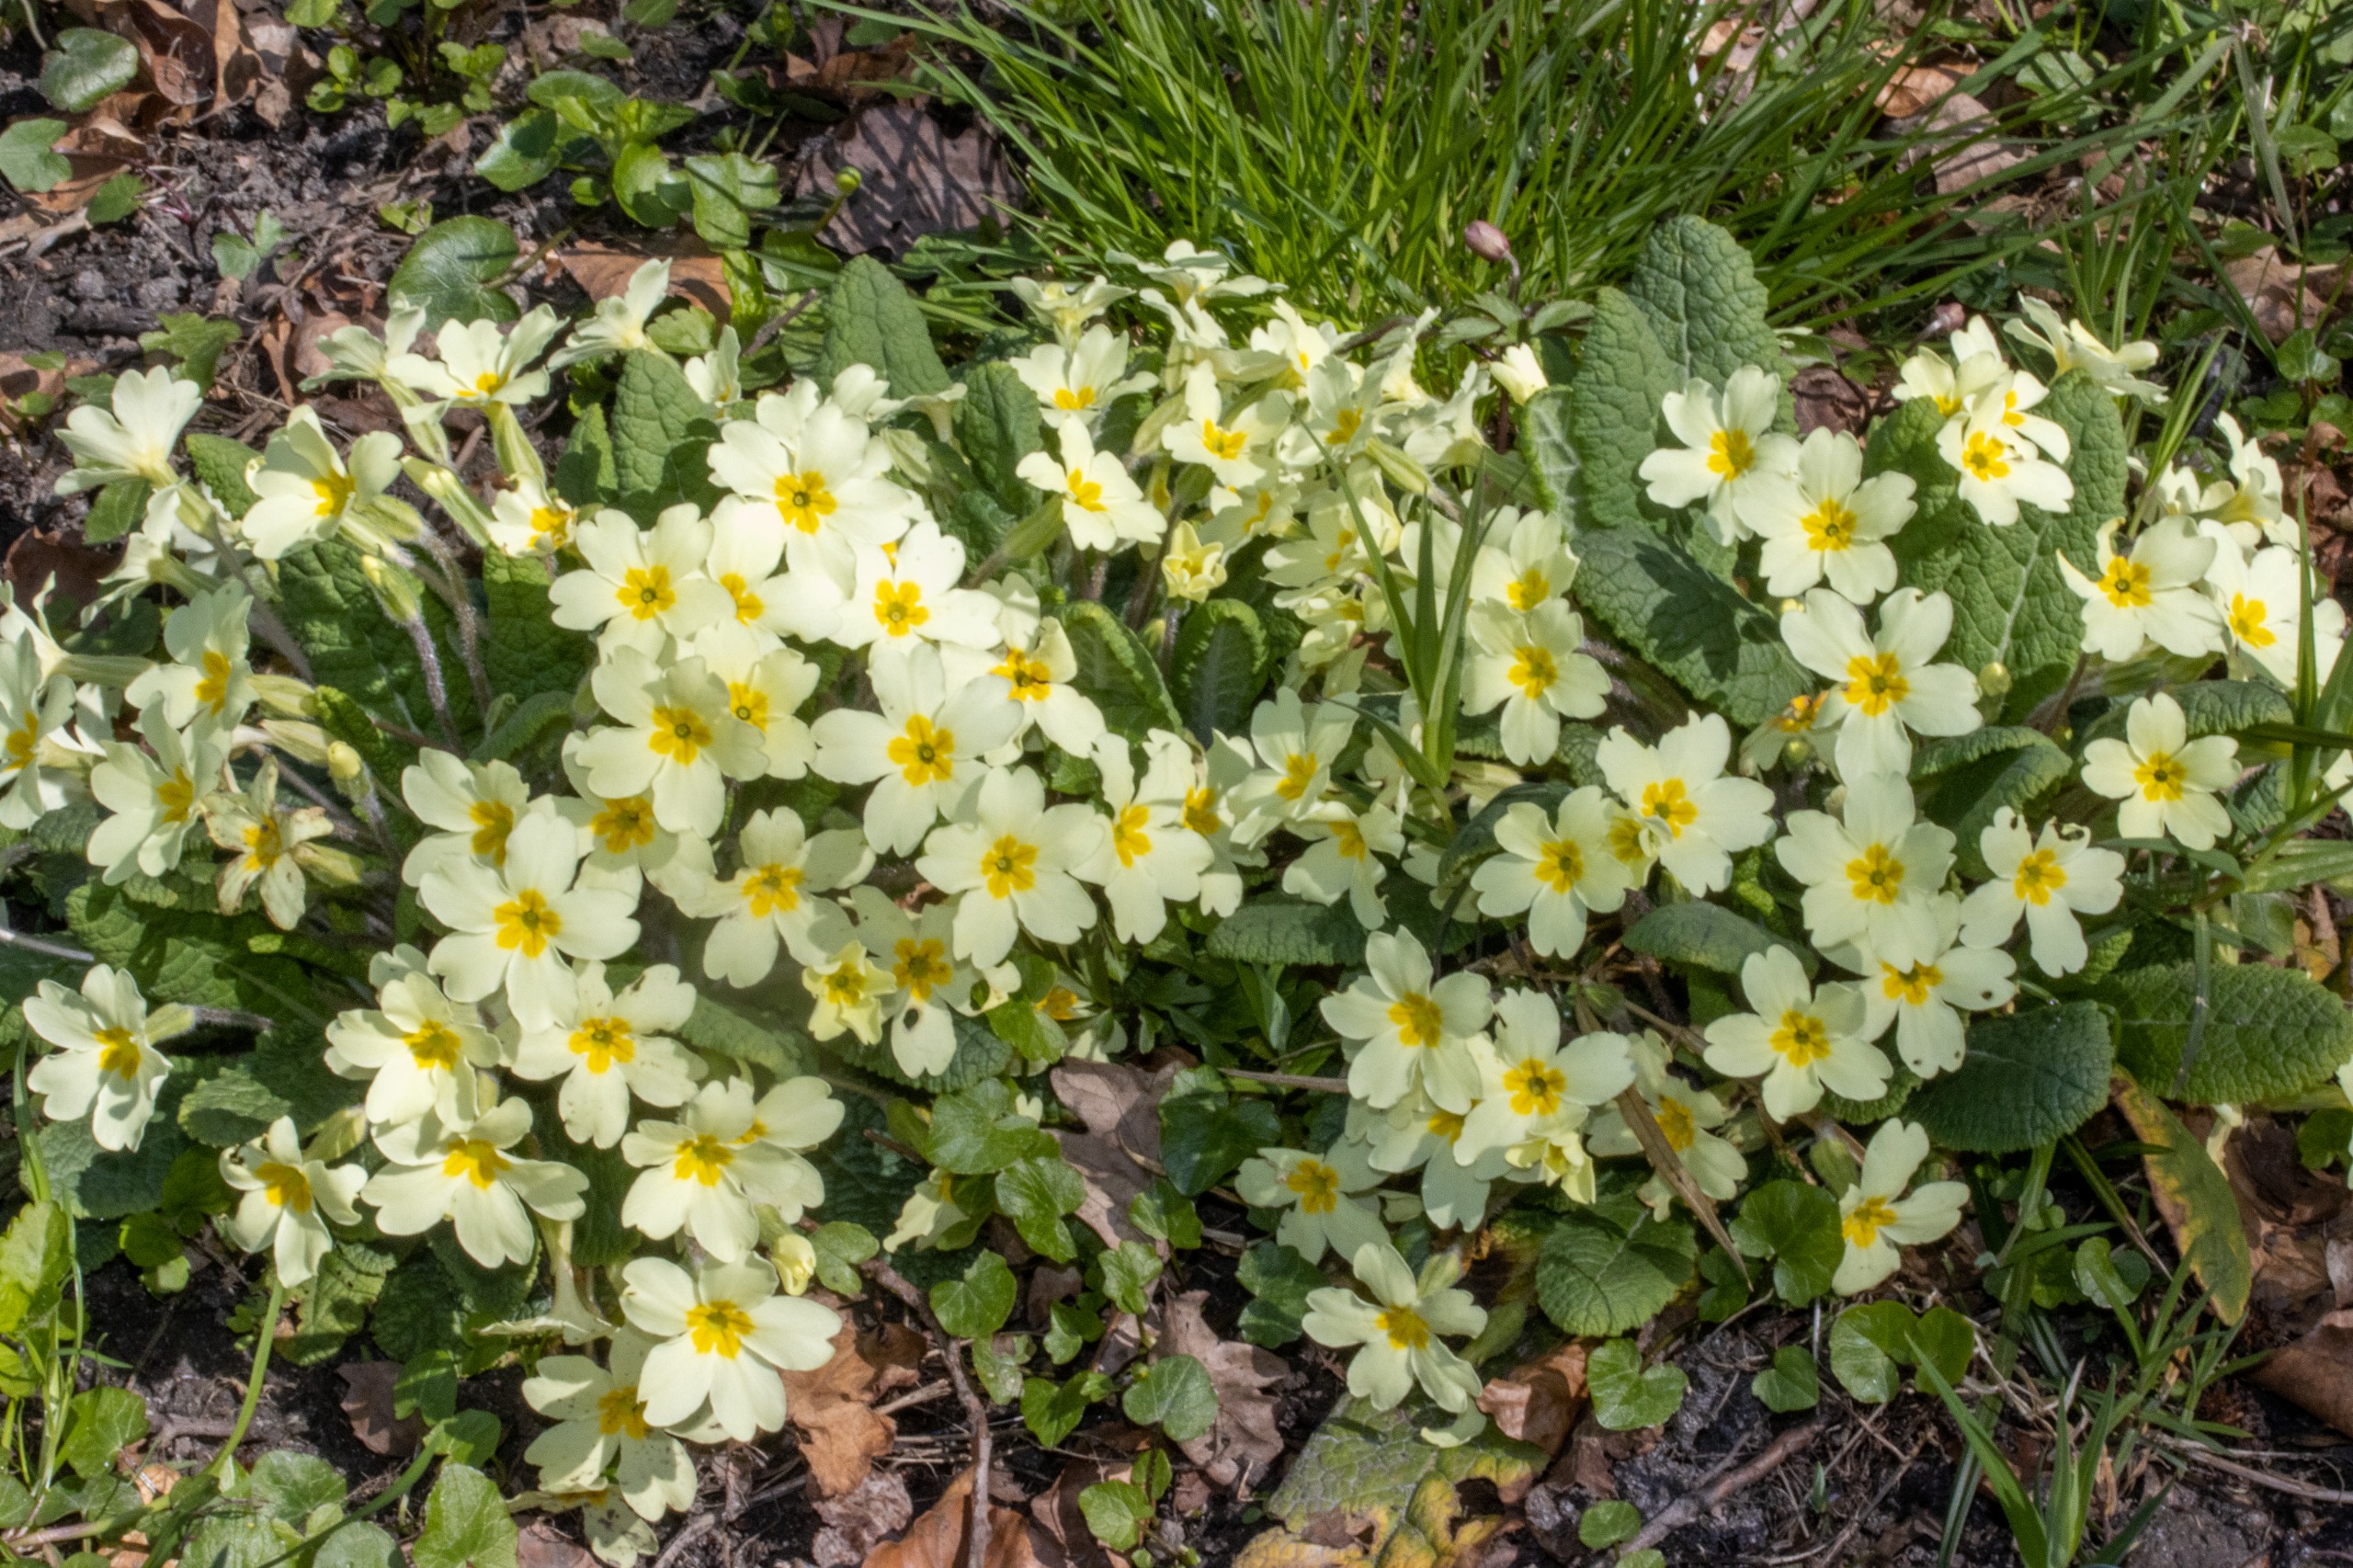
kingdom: Plantae
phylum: Tracheophyta
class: Magnoliopsida
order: Ericales
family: Primulaceae
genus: Primula
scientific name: Primula vulgaris
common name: Storblomstret kodriver
